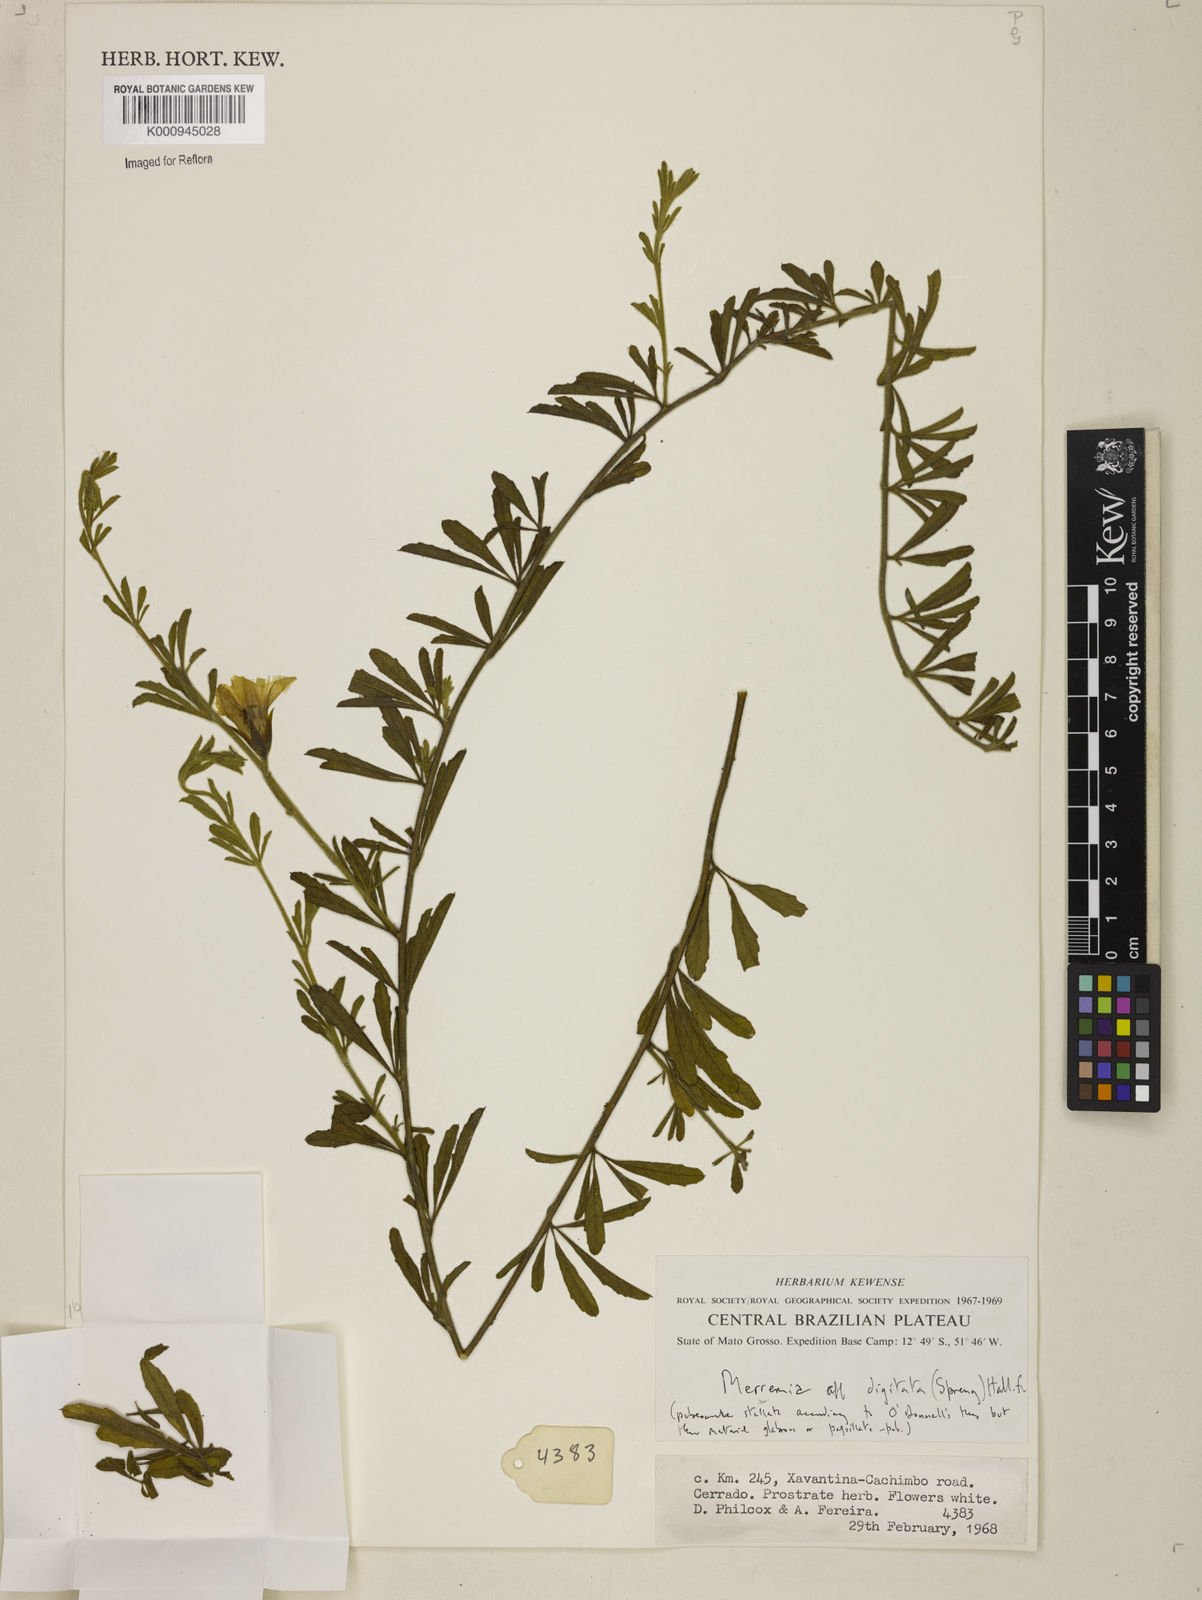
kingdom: Plantae
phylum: Tracheophyta
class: Magnoliopsida
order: Solanales
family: Convolvulaceae
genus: Distimake
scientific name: Distimake digitatus
